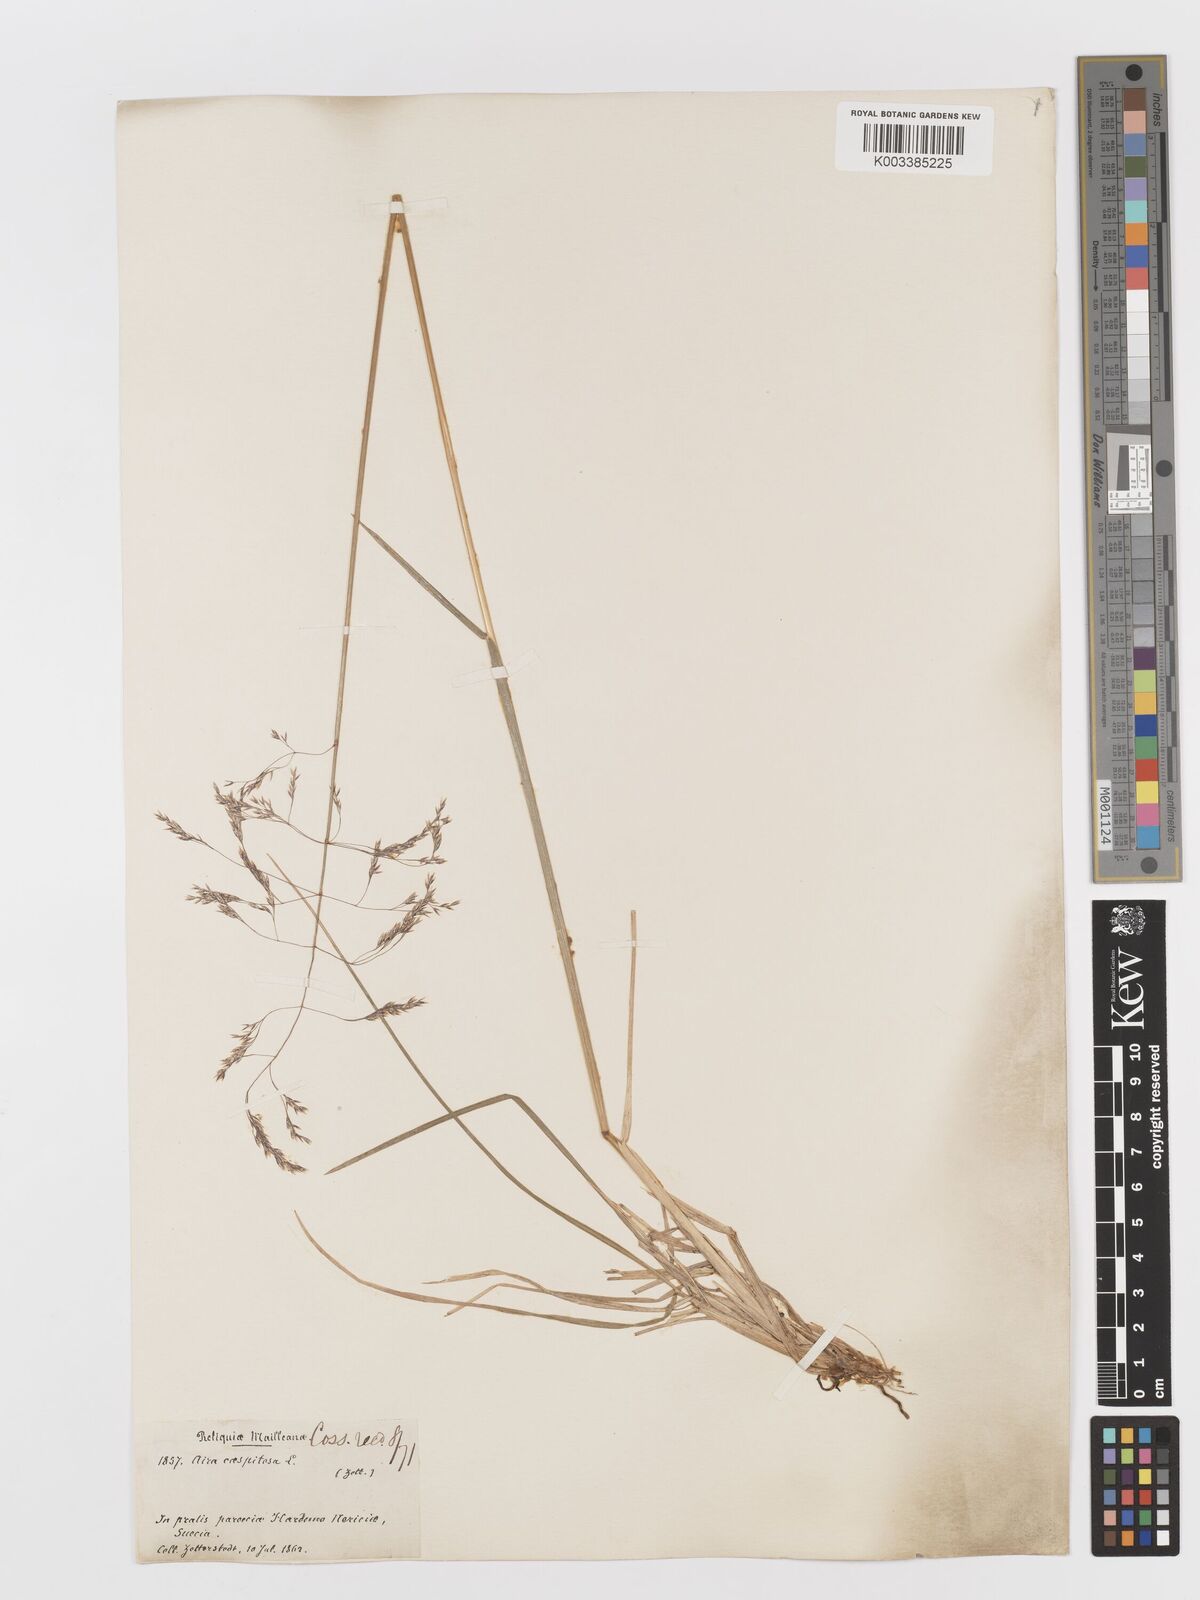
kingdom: Plantae
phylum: Tracheophyta
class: Liliopsida
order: Poales
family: Poaceae
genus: Deschampsia
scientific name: Deschampsia cespitosa
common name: Tufted hair-grass
